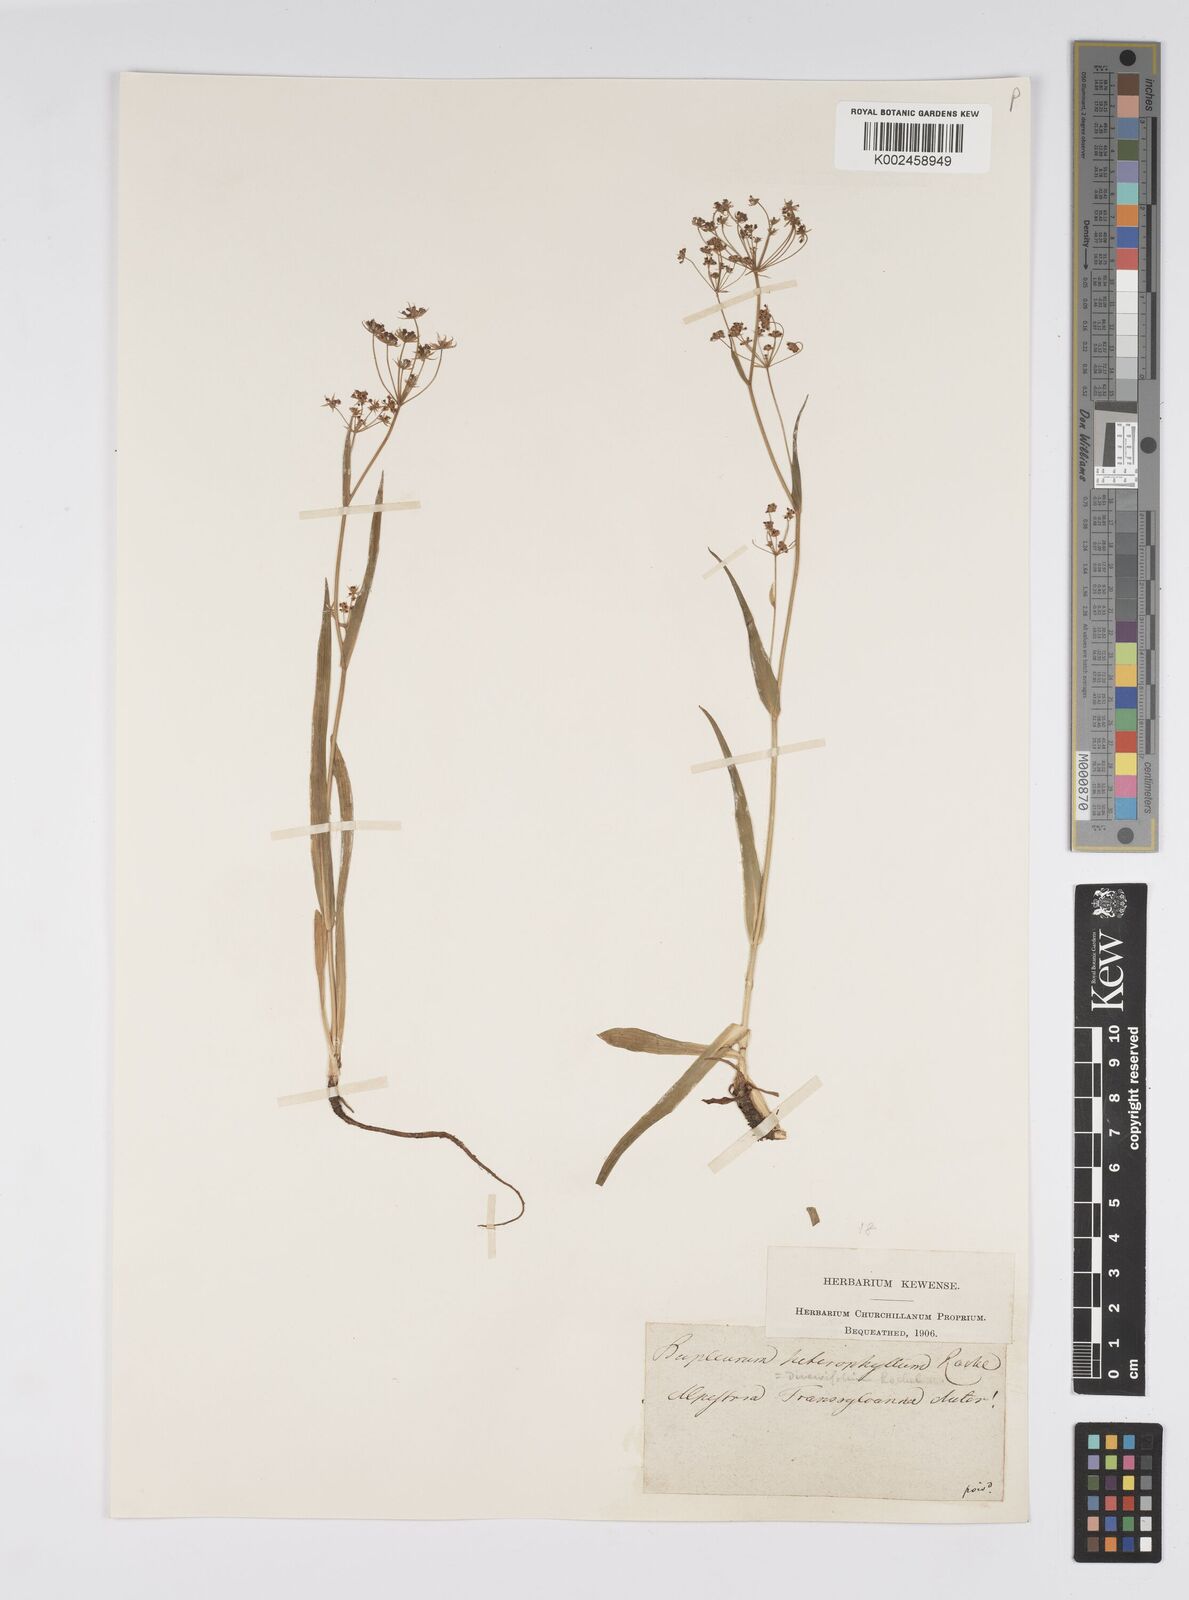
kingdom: Plantae
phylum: Tracheophyta
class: Magnoliopsida
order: Apiales
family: Apiaceae
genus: Bupleurum
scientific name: Bupleurum falcatum
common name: Sickle-leaved hare's-ear
